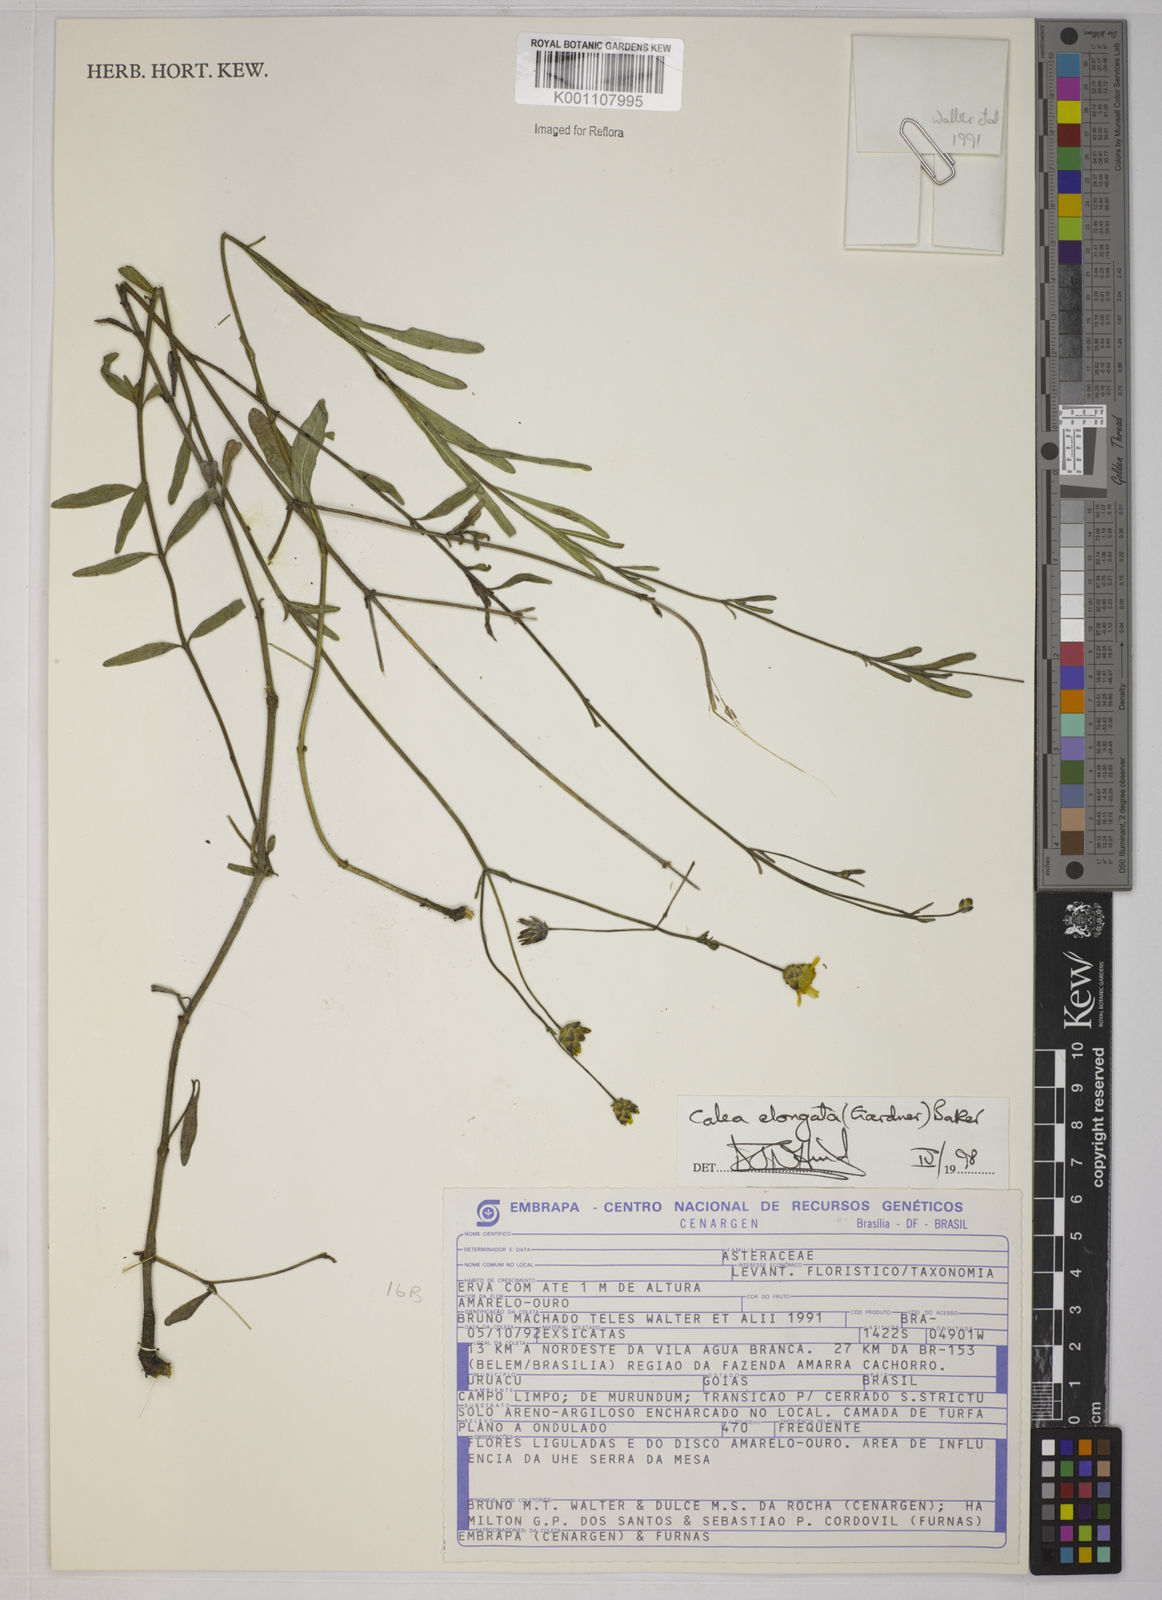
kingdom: Plantae
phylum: Tracheophyta
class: Magnoliopsida
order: Asterales
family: Asteraceae
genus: Calea
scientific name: Calea elongata
